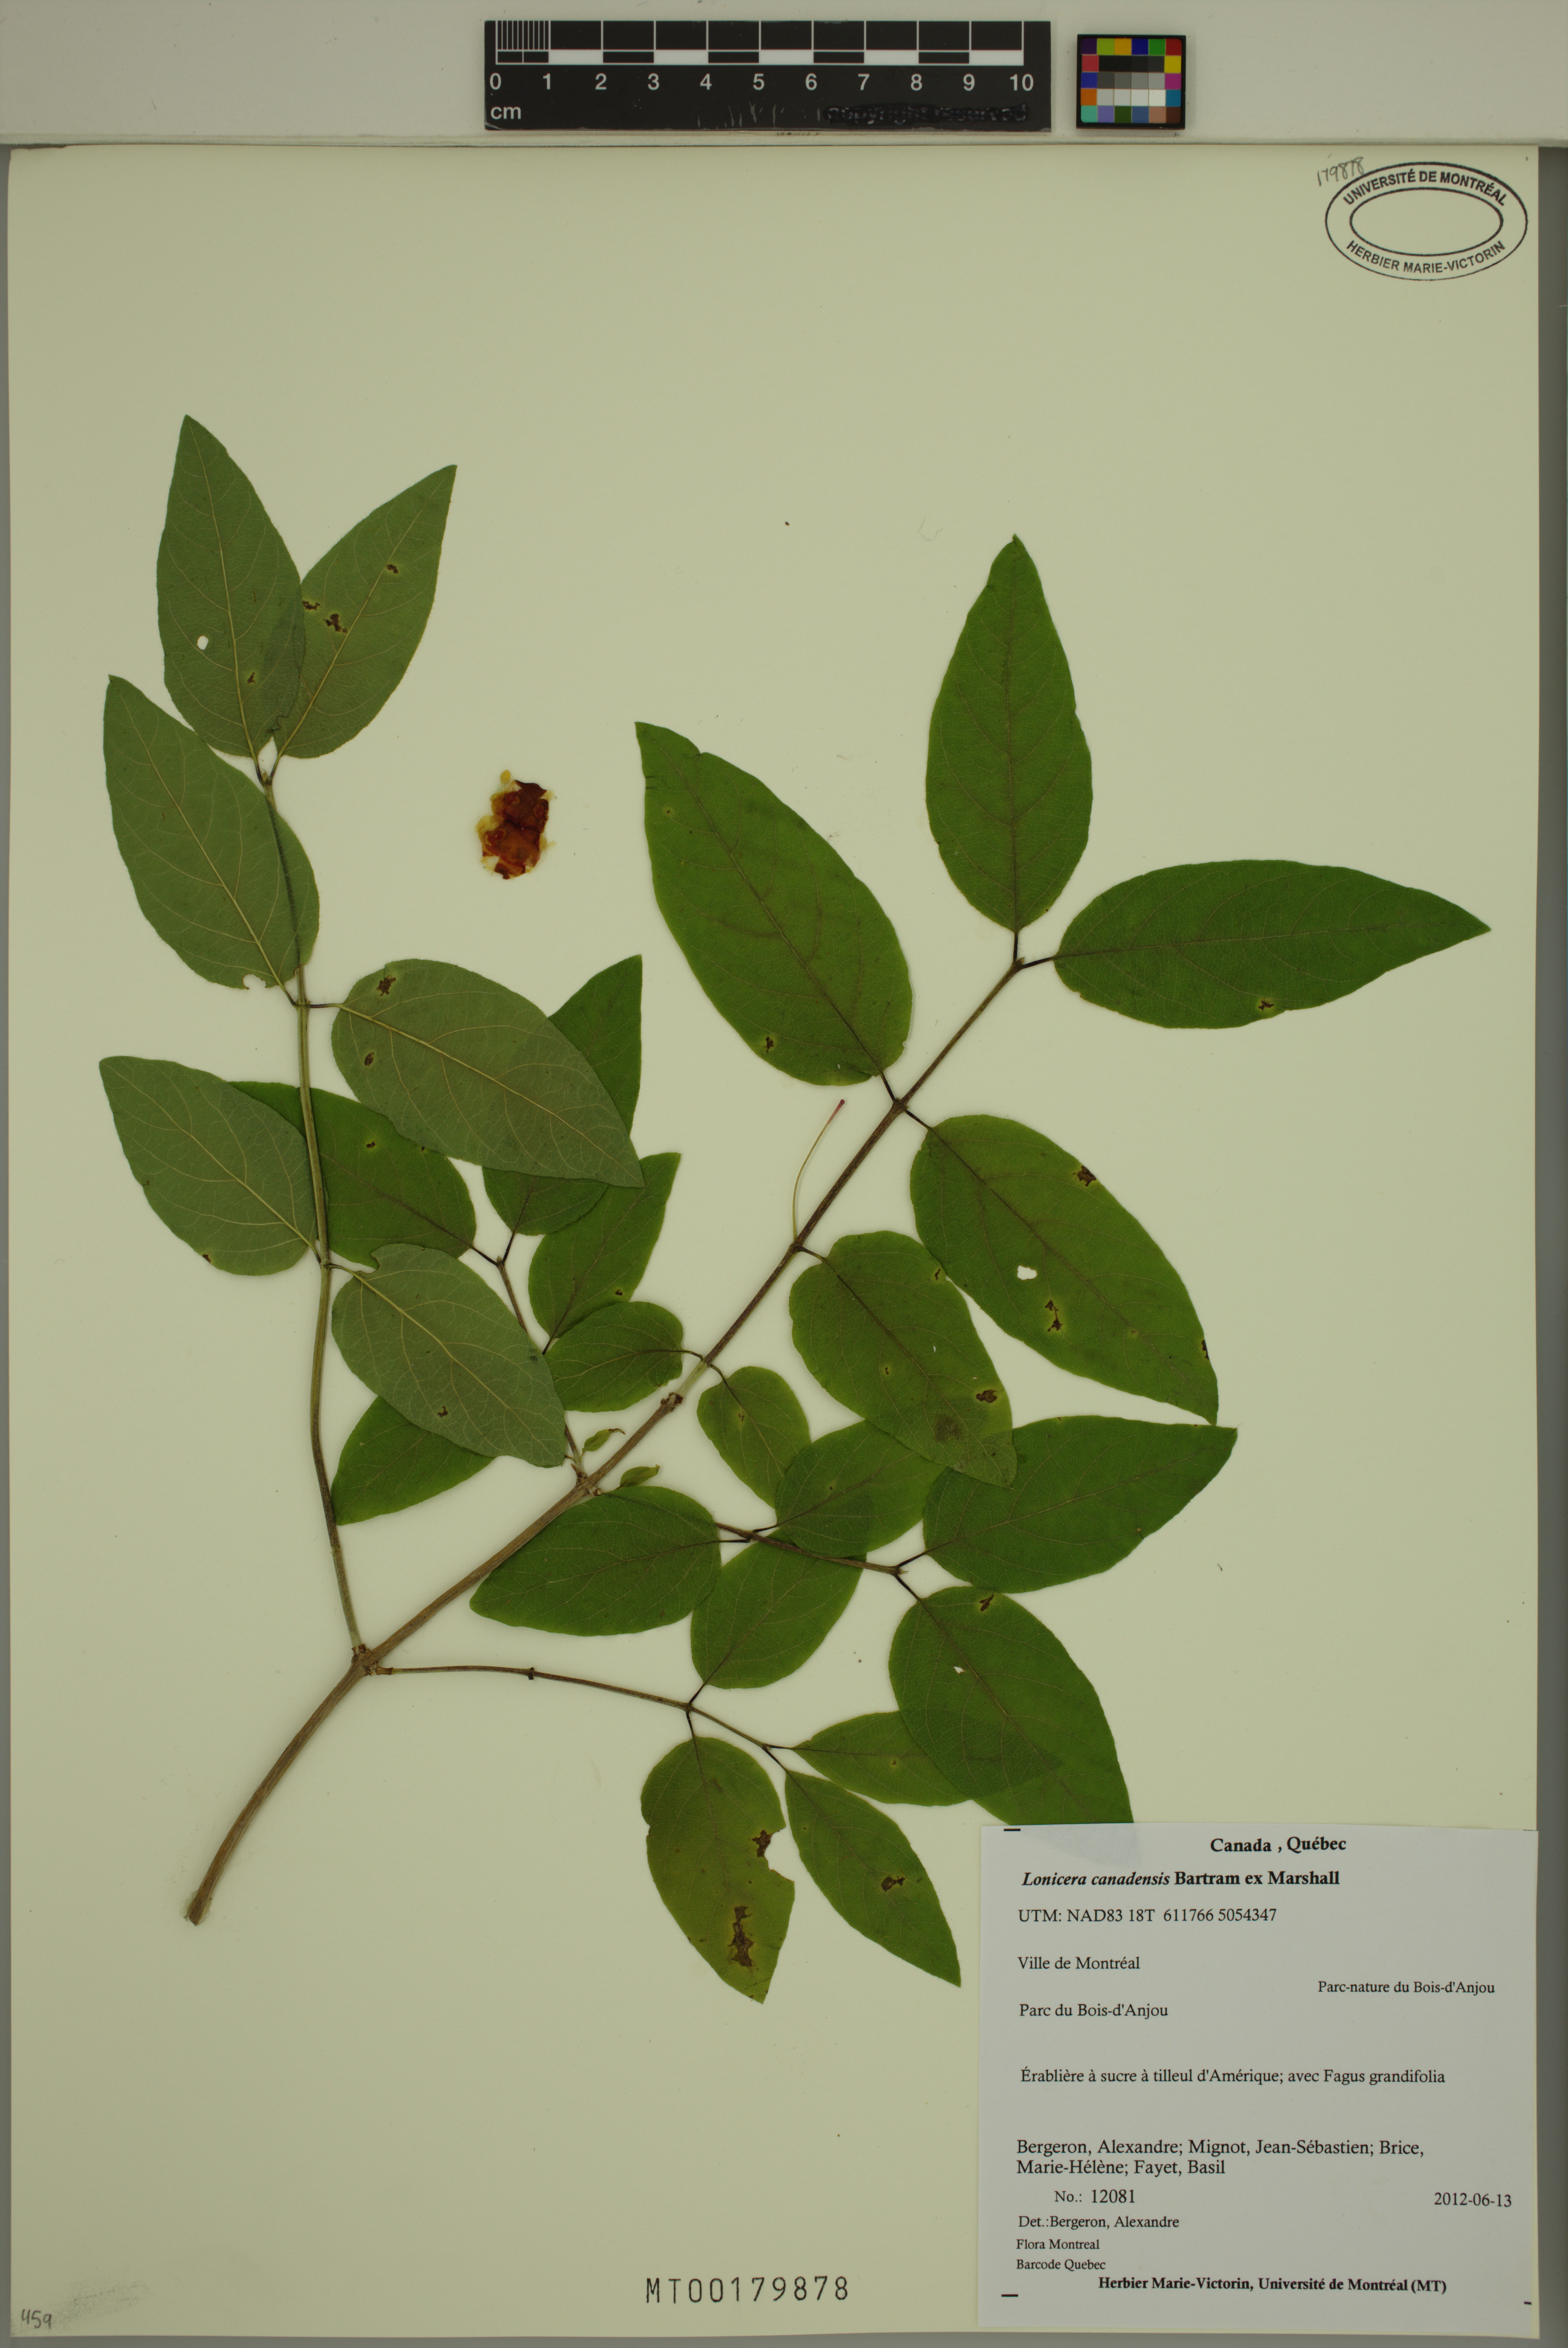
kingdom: Plantae
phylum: Tracheophyta
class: Magnoliopsida
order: Dipsacales
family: Caprifoliaceae
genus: Lonicera
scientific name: Lonicera canadensis
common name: American fly-honeysuckle
